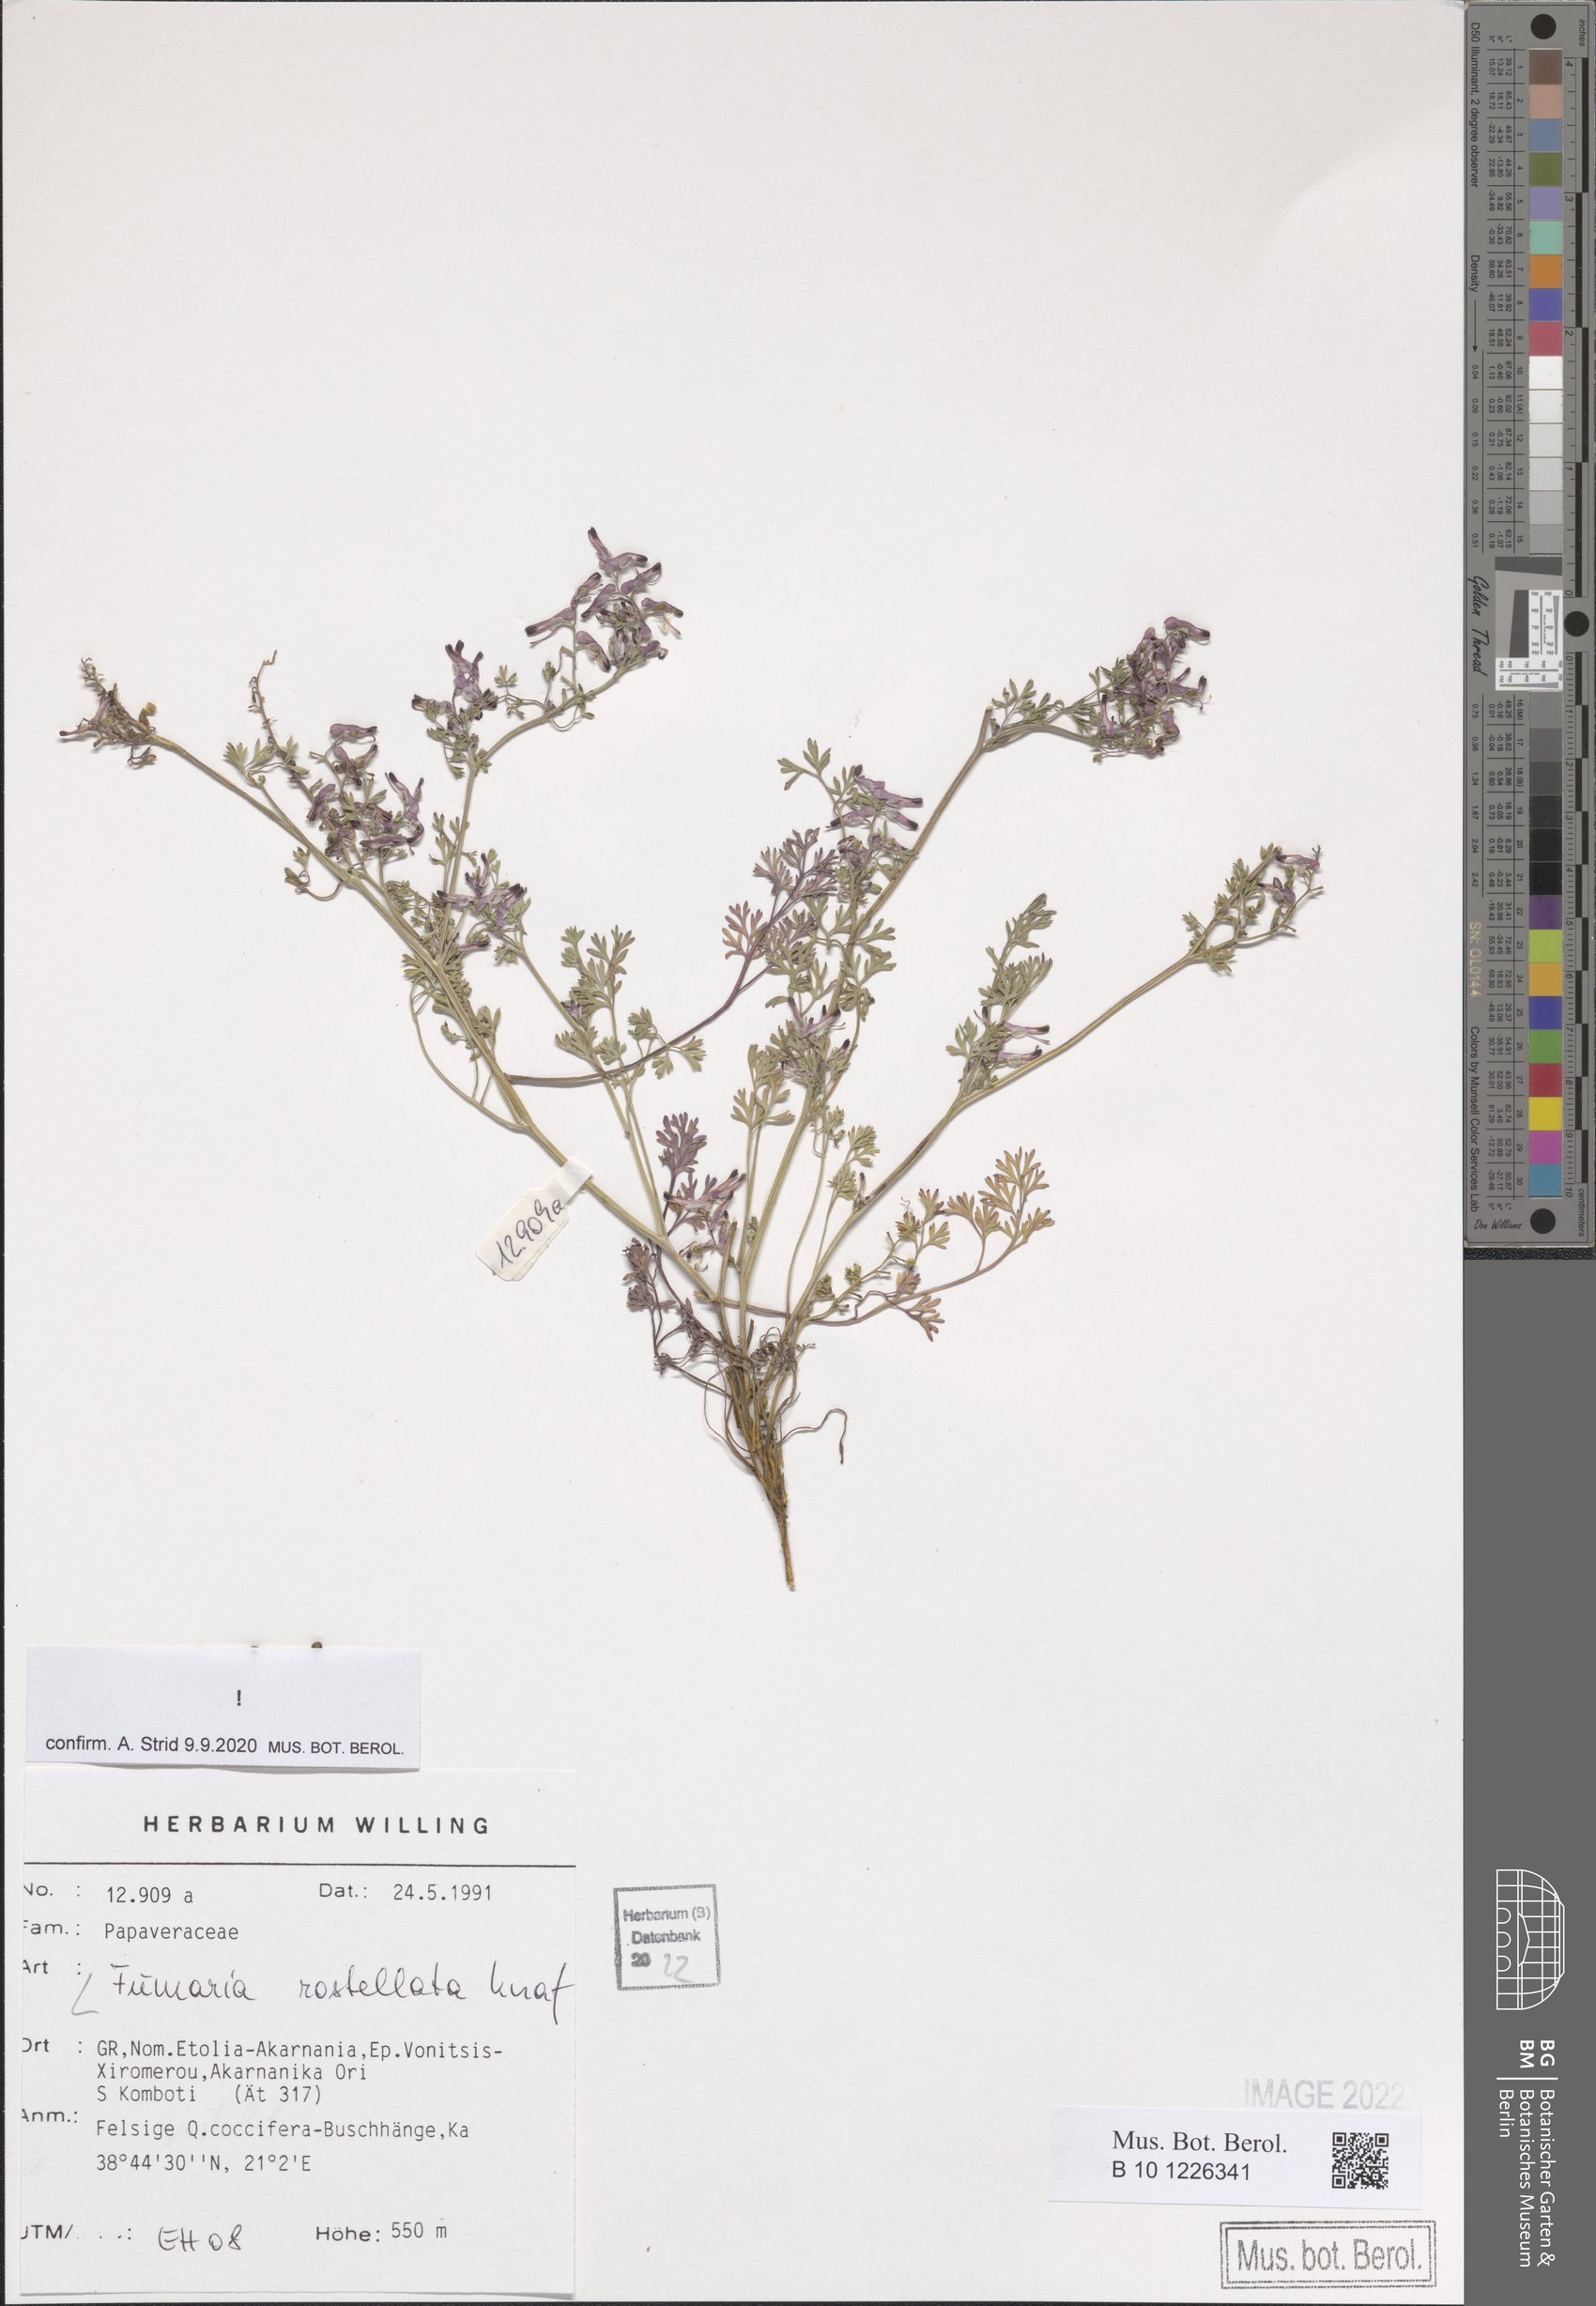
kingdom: Plantae
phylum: Tracheophyta
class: Magnoliopsida
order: Ranunculales
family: Papaveraceae
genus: Fumaria
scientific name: Fumaria rostellata
